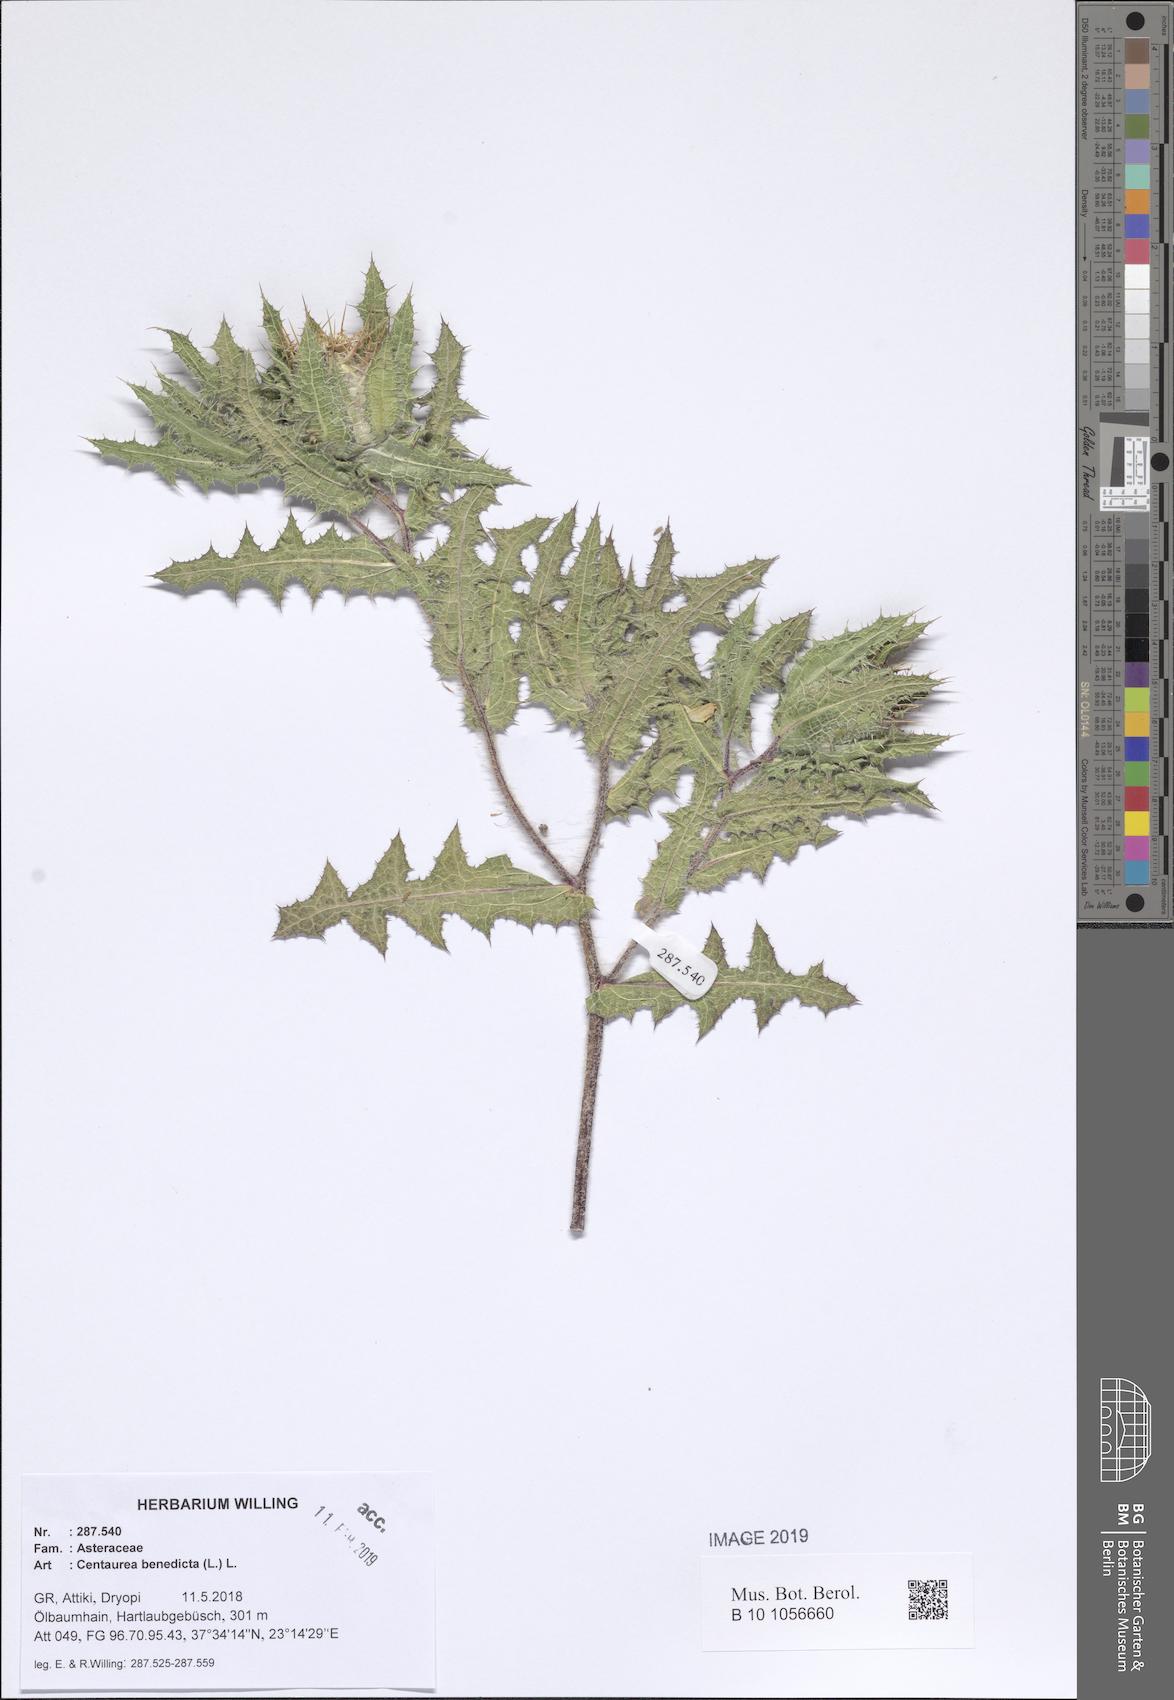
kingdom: Plantae
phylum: Tracheophyta
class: Magnoliopsida
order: Asterales
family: Asteraceae
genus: Centaurea
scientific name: Centaurea benedicta
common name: Blessed thistle
